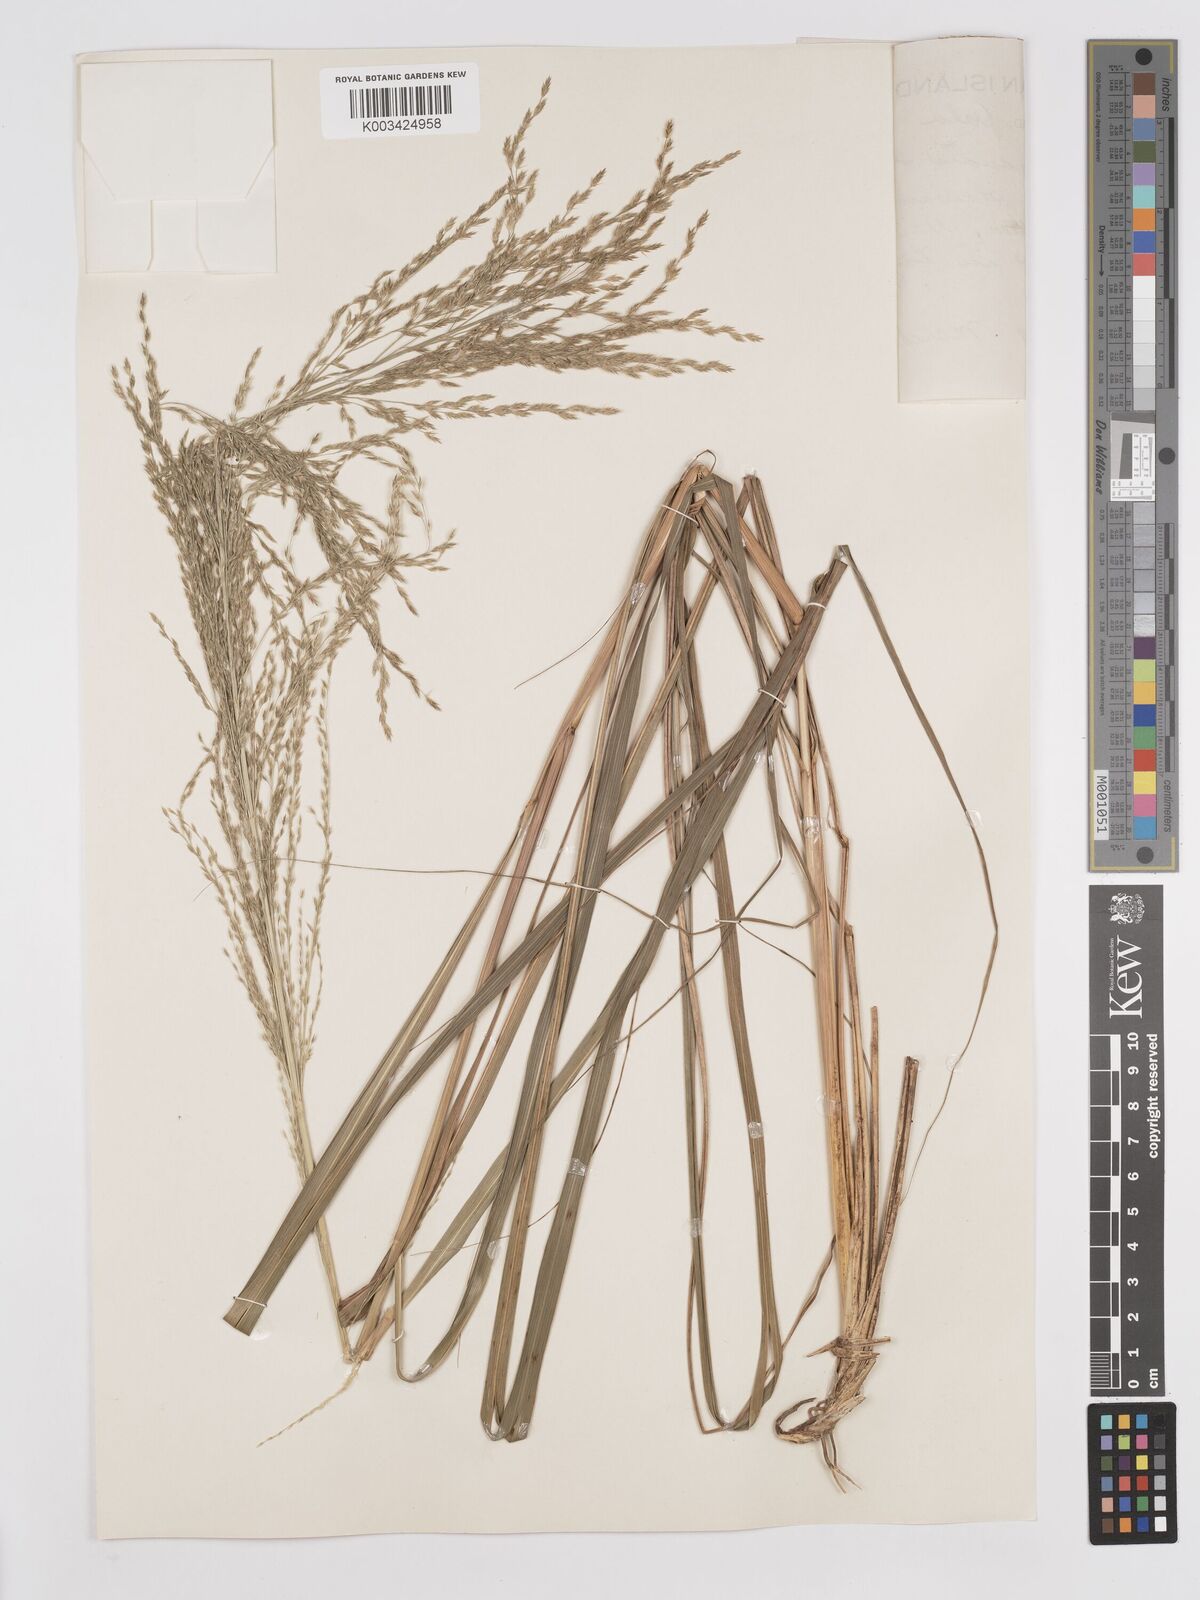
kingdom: Plantae
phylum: Tracheophyta
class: Liliopsida
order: Poales
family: Poaceae
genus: Eragrostis
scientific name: Eragrostis grandis
